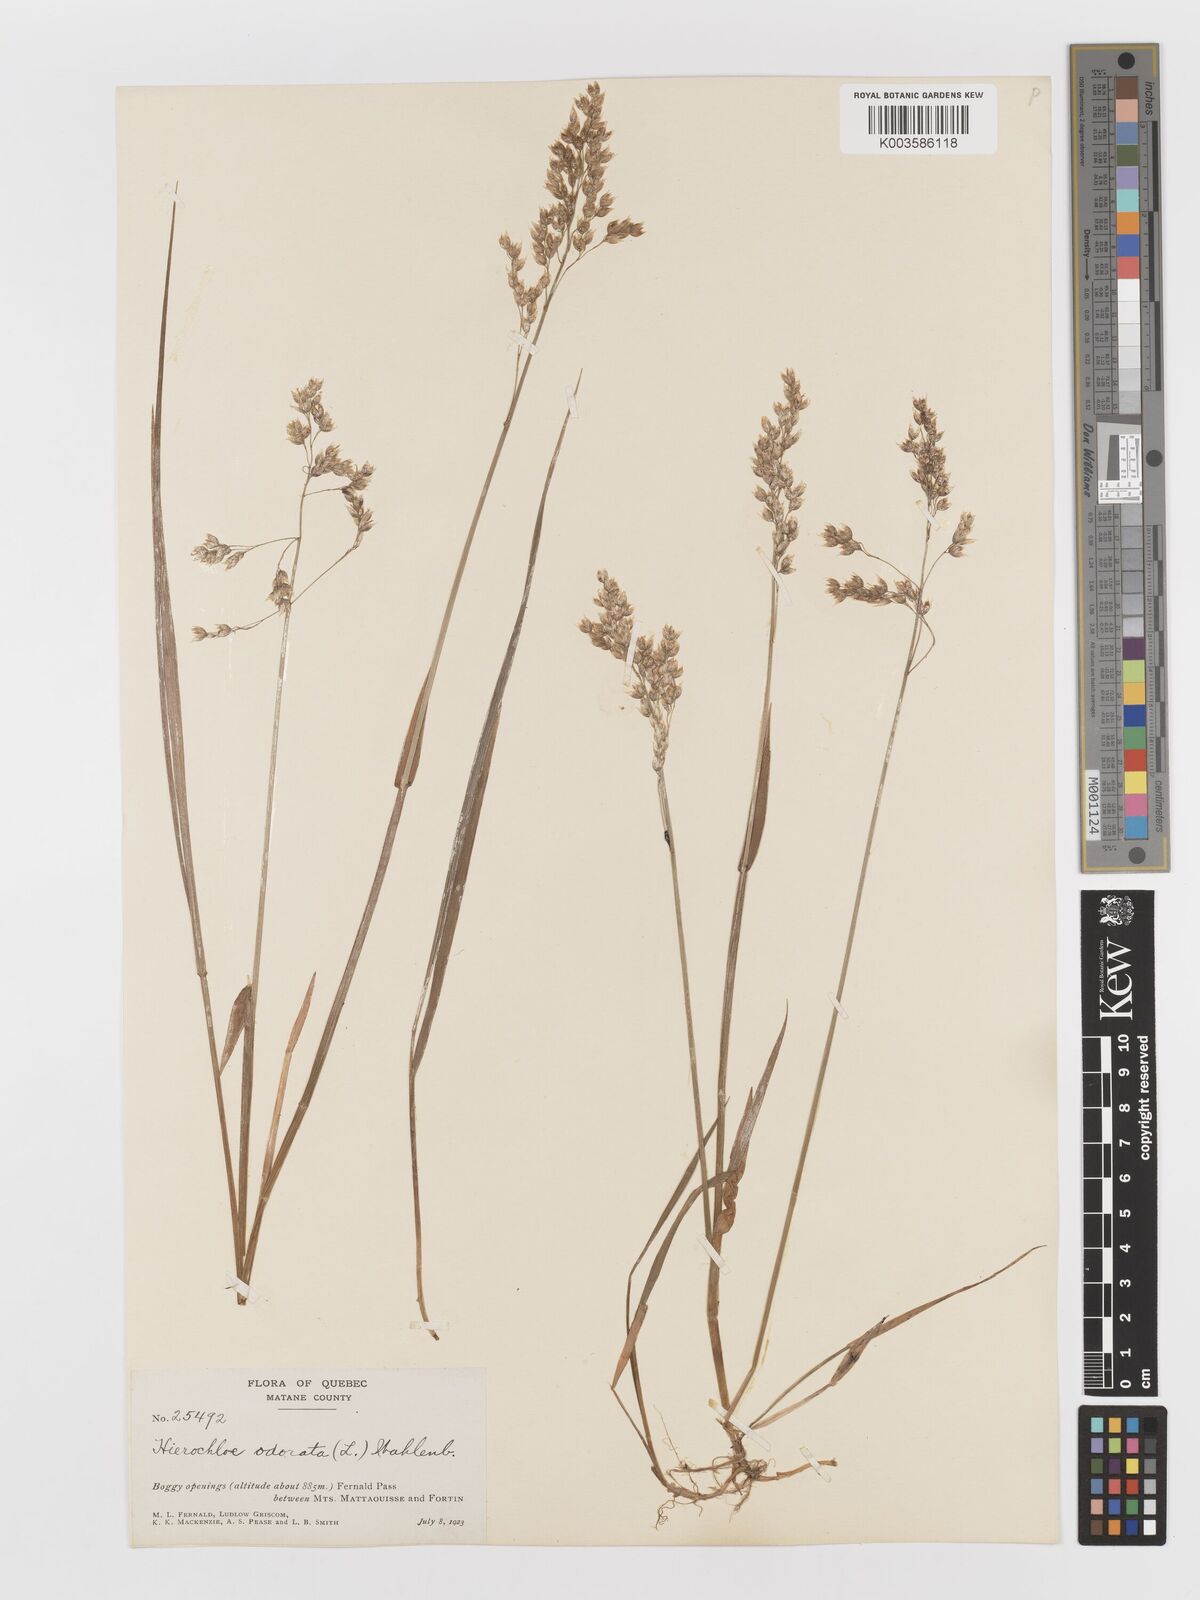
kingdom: Plantae
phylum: Tracheophyta
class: Liliopsida
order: Poales
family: Poaceae
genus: Anthoxanthum
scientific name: Anthoxanthum nitens
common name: Holy grass
